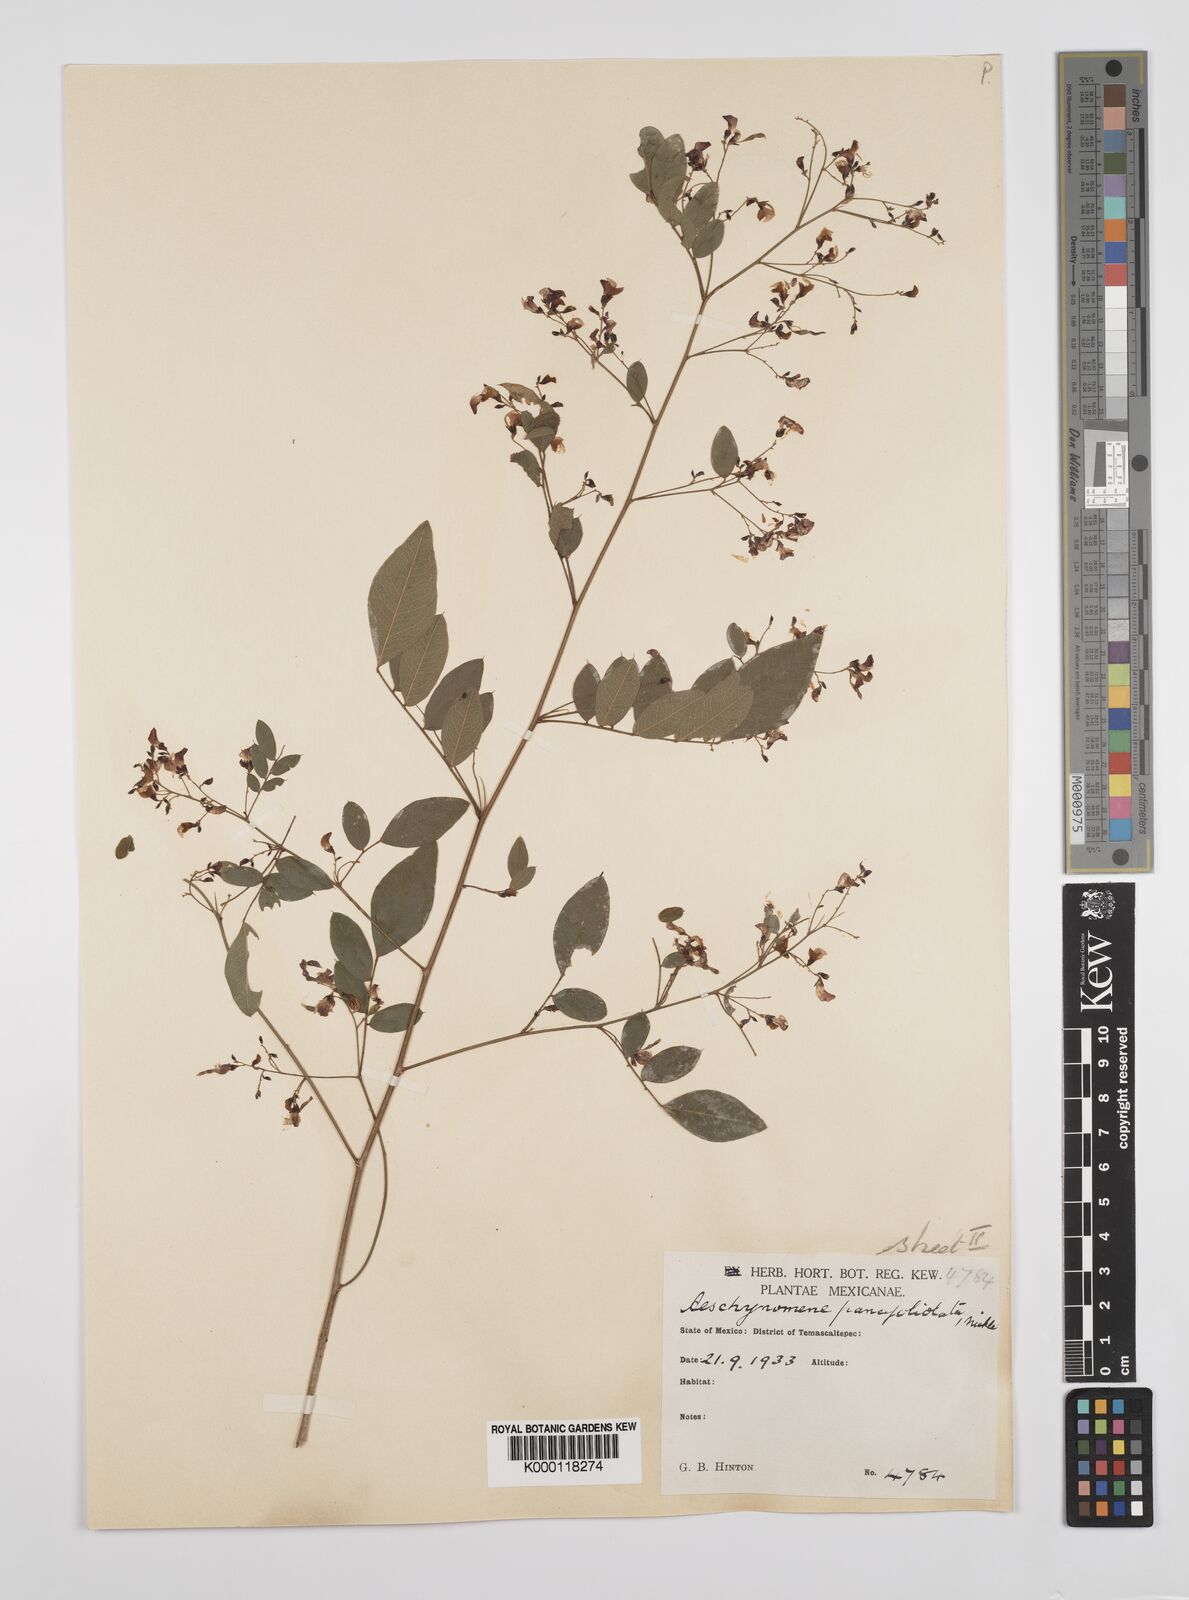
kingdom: Plantae
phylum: Tracheophyta
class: Magnoliopsida
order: Fabales
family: Fabaceae
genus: Ctenodon
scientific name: Ctenodon paucifoliolatus
